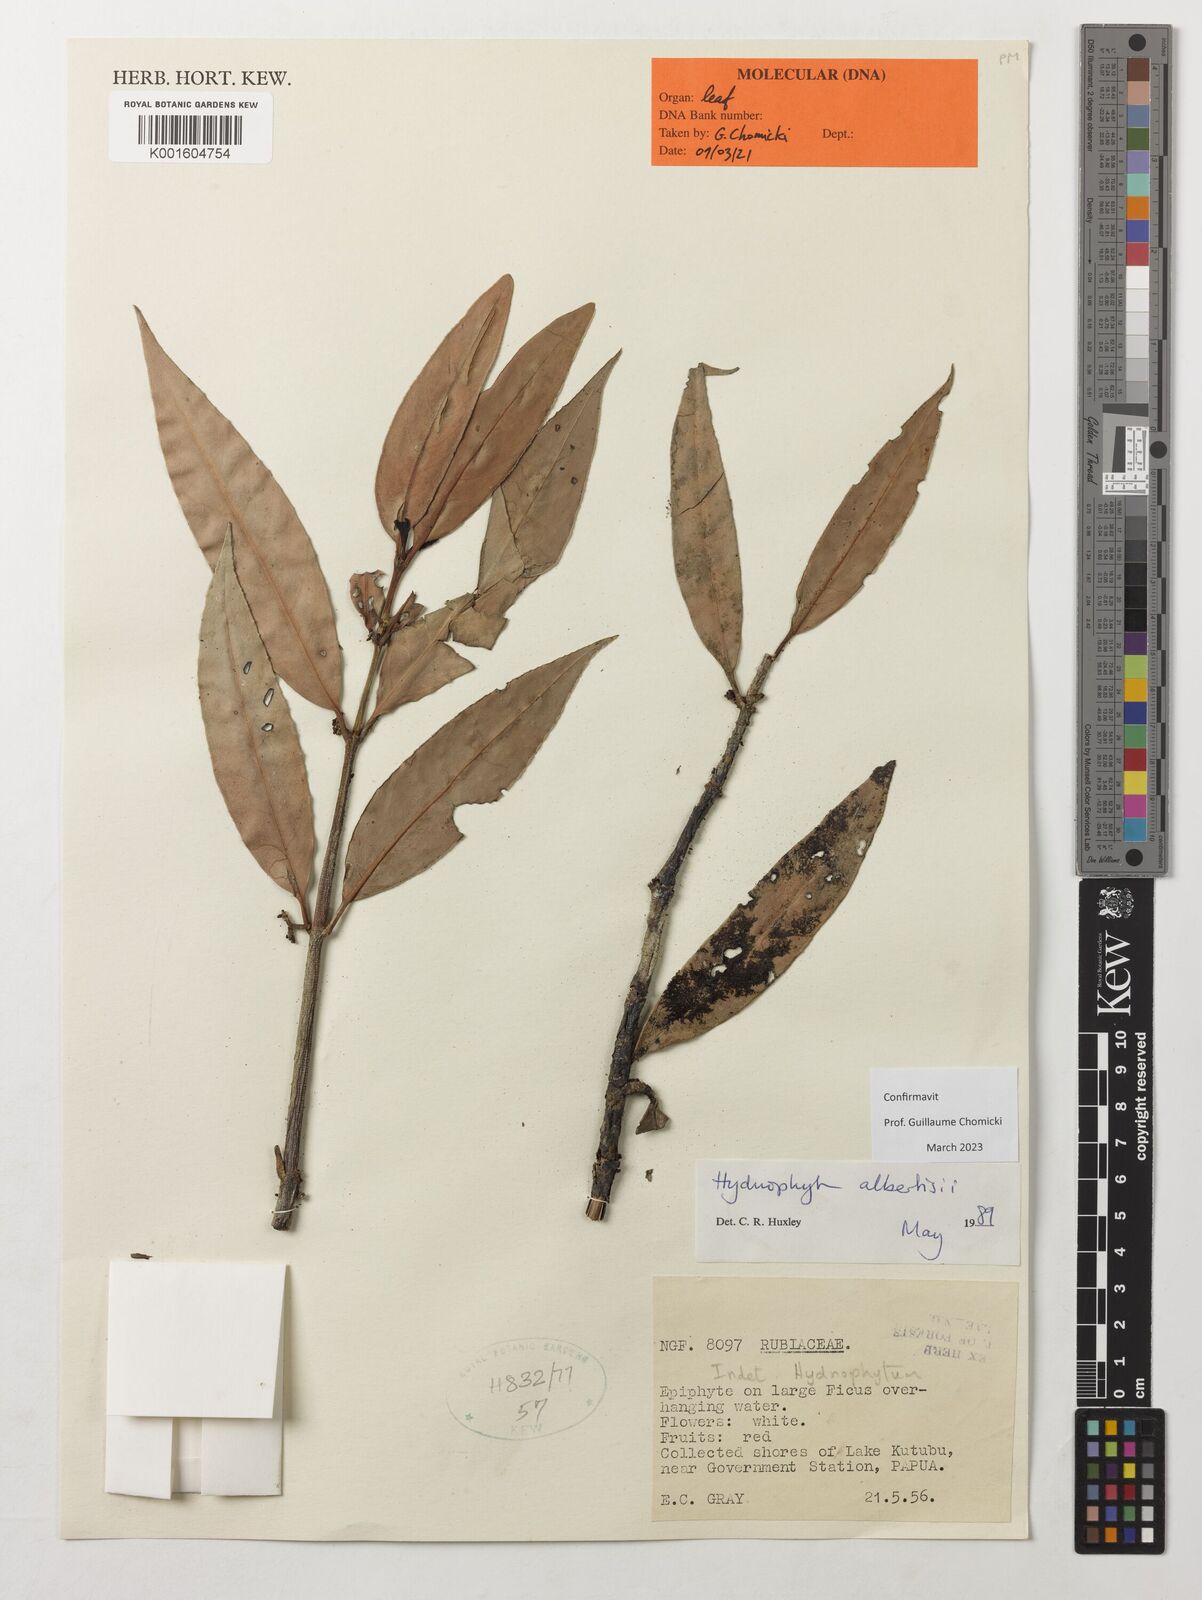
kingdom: Plantae
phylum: Tracheophyta
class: Magnoliopsida
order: Gentianales
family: Rubiaceae
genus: Hydnophytum
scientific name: Hydnophytum albertisii
